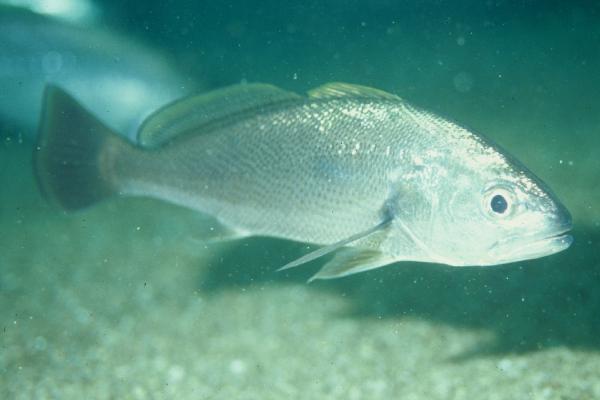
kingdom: Animalia
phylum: Chordata
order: Perciformes
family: Sciaenidae
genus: Argyrosomus
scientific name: Argyrosomus
